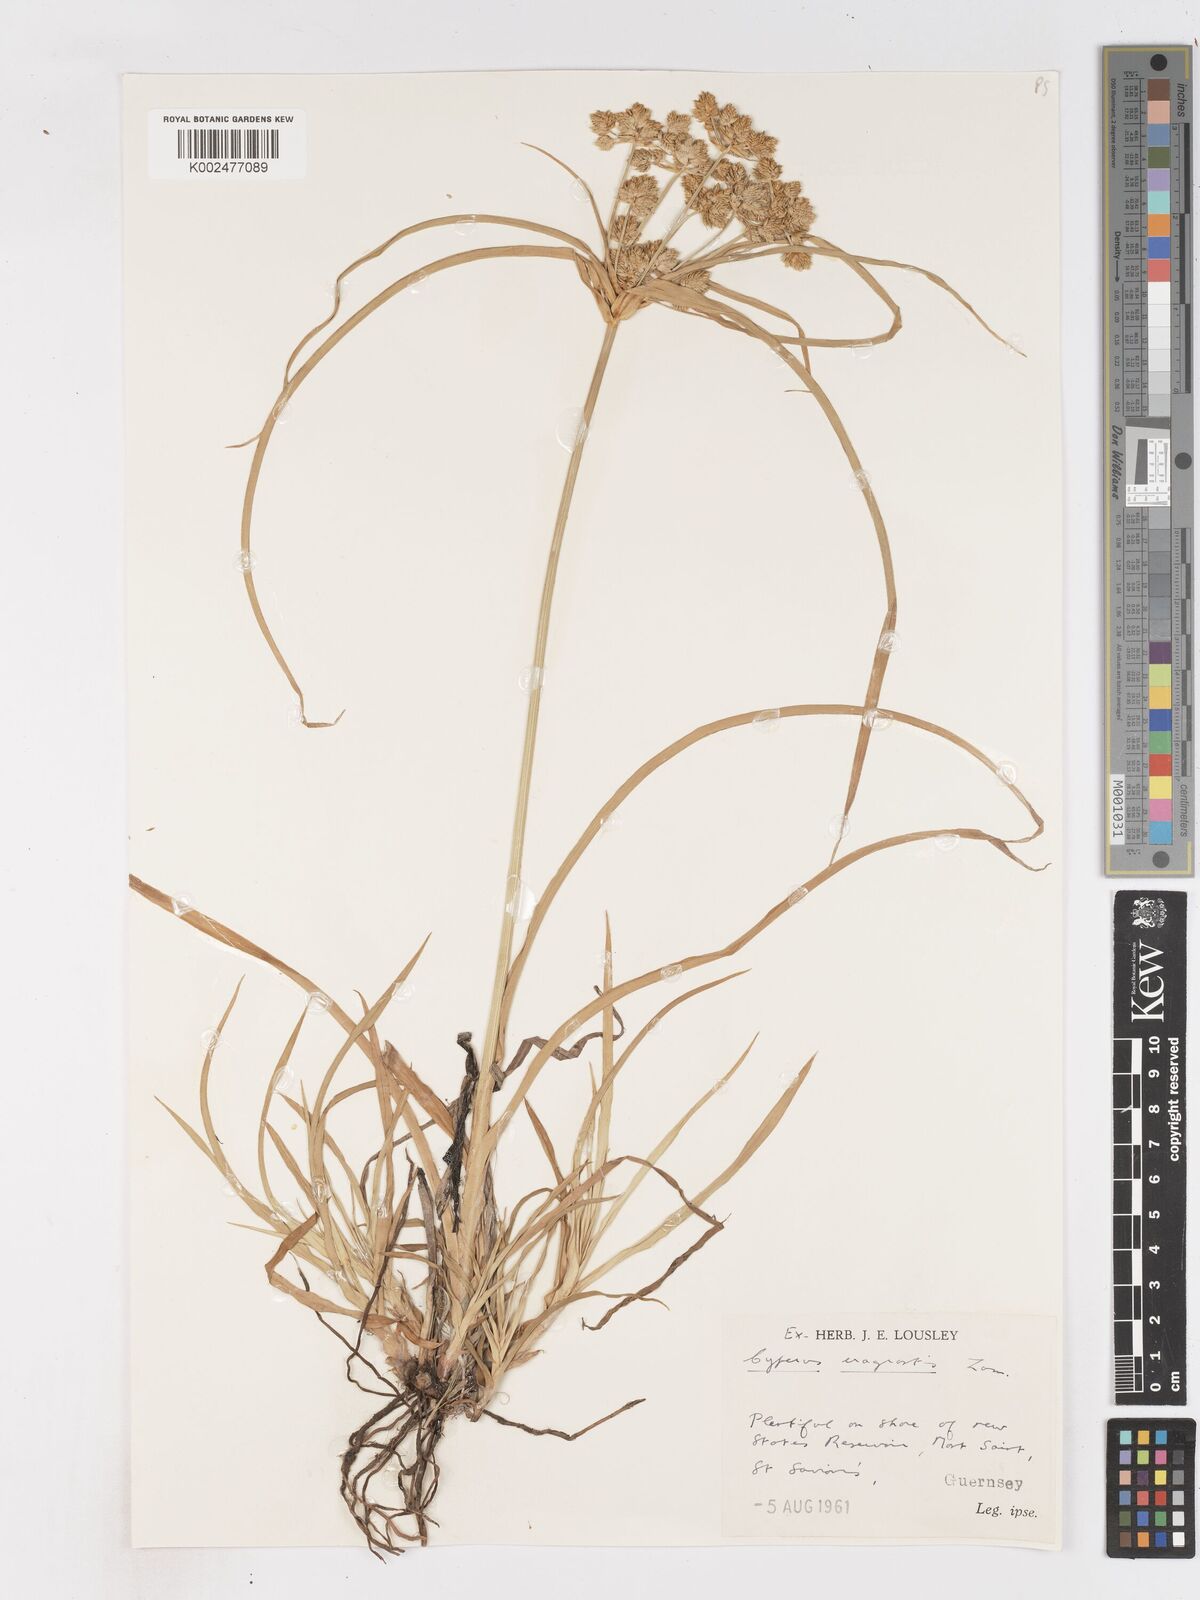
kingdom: Plantae
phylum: Tracheophyta
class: Liliopsida
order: Poales
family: Cyperaceae
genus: Cyperus
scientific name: Cyperus eragrostis
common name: Tall flatsedge
